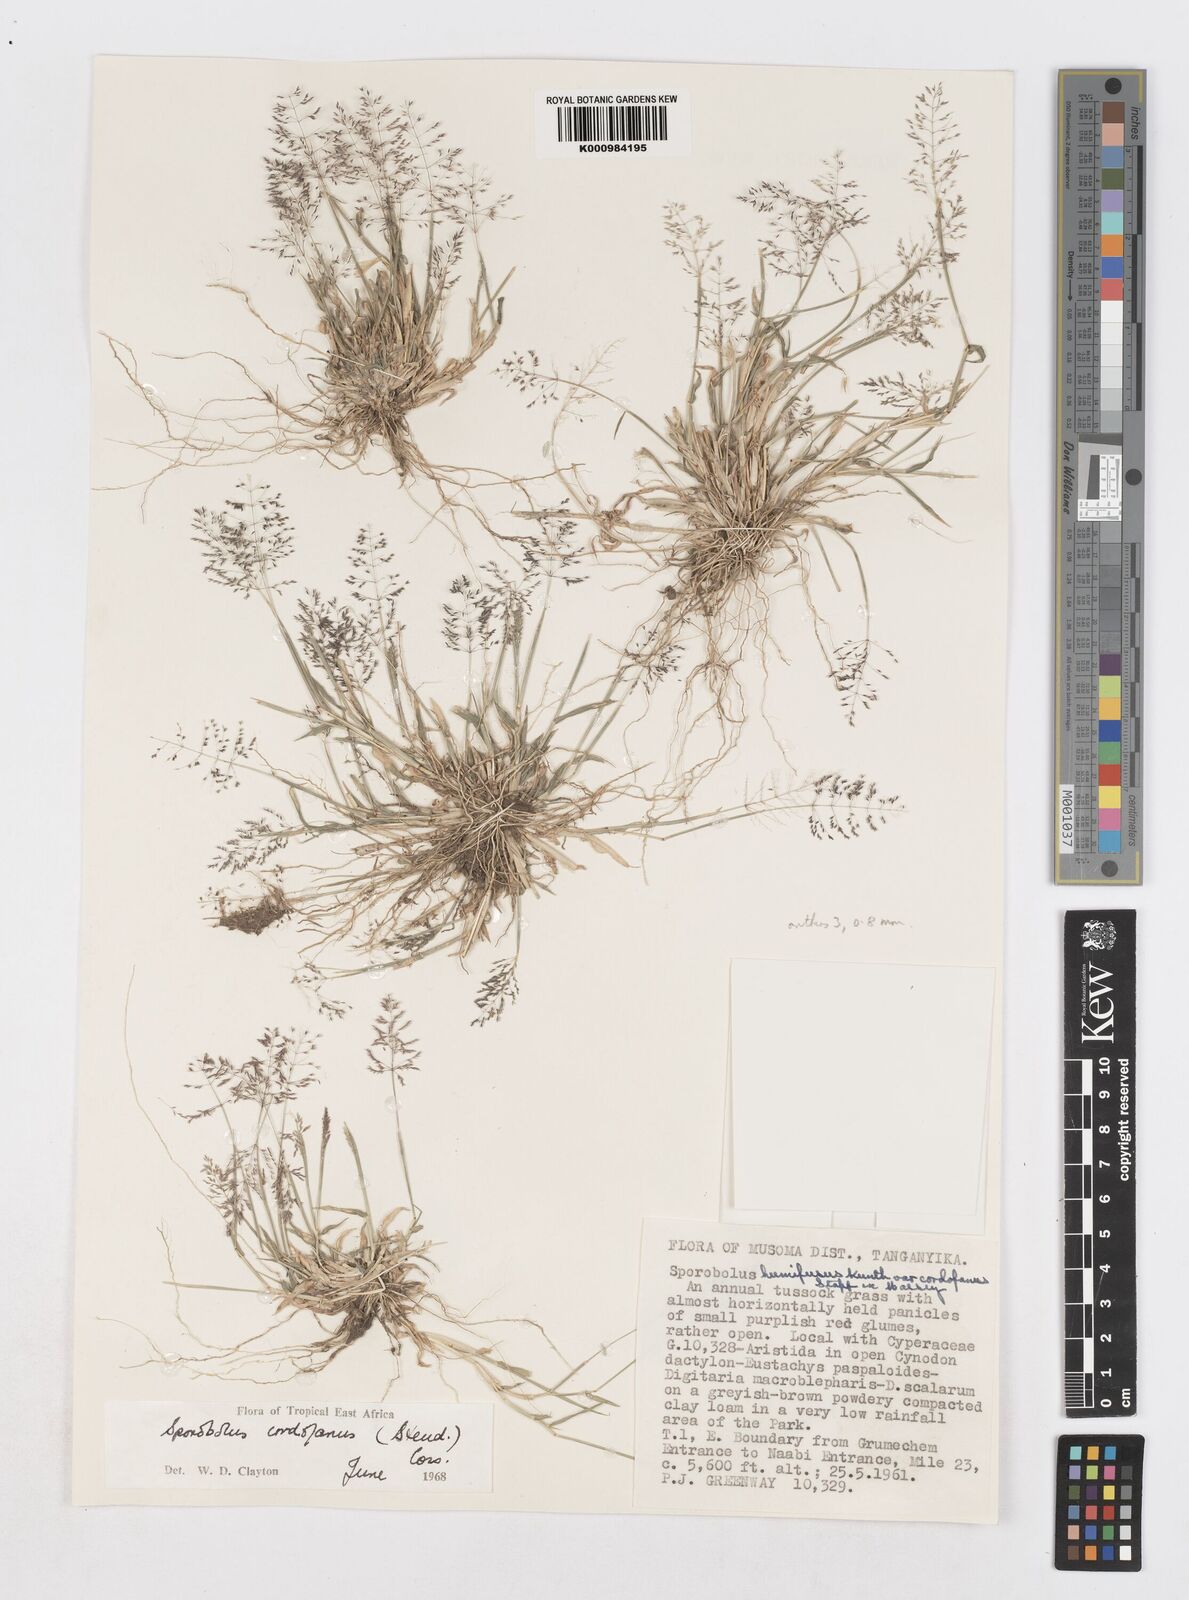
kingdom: Plantae
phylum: Tracheophyta
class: Liliopsida
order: Poales
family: Poaceae
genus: Sporobolus
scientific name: Sporobolus cordofanus
